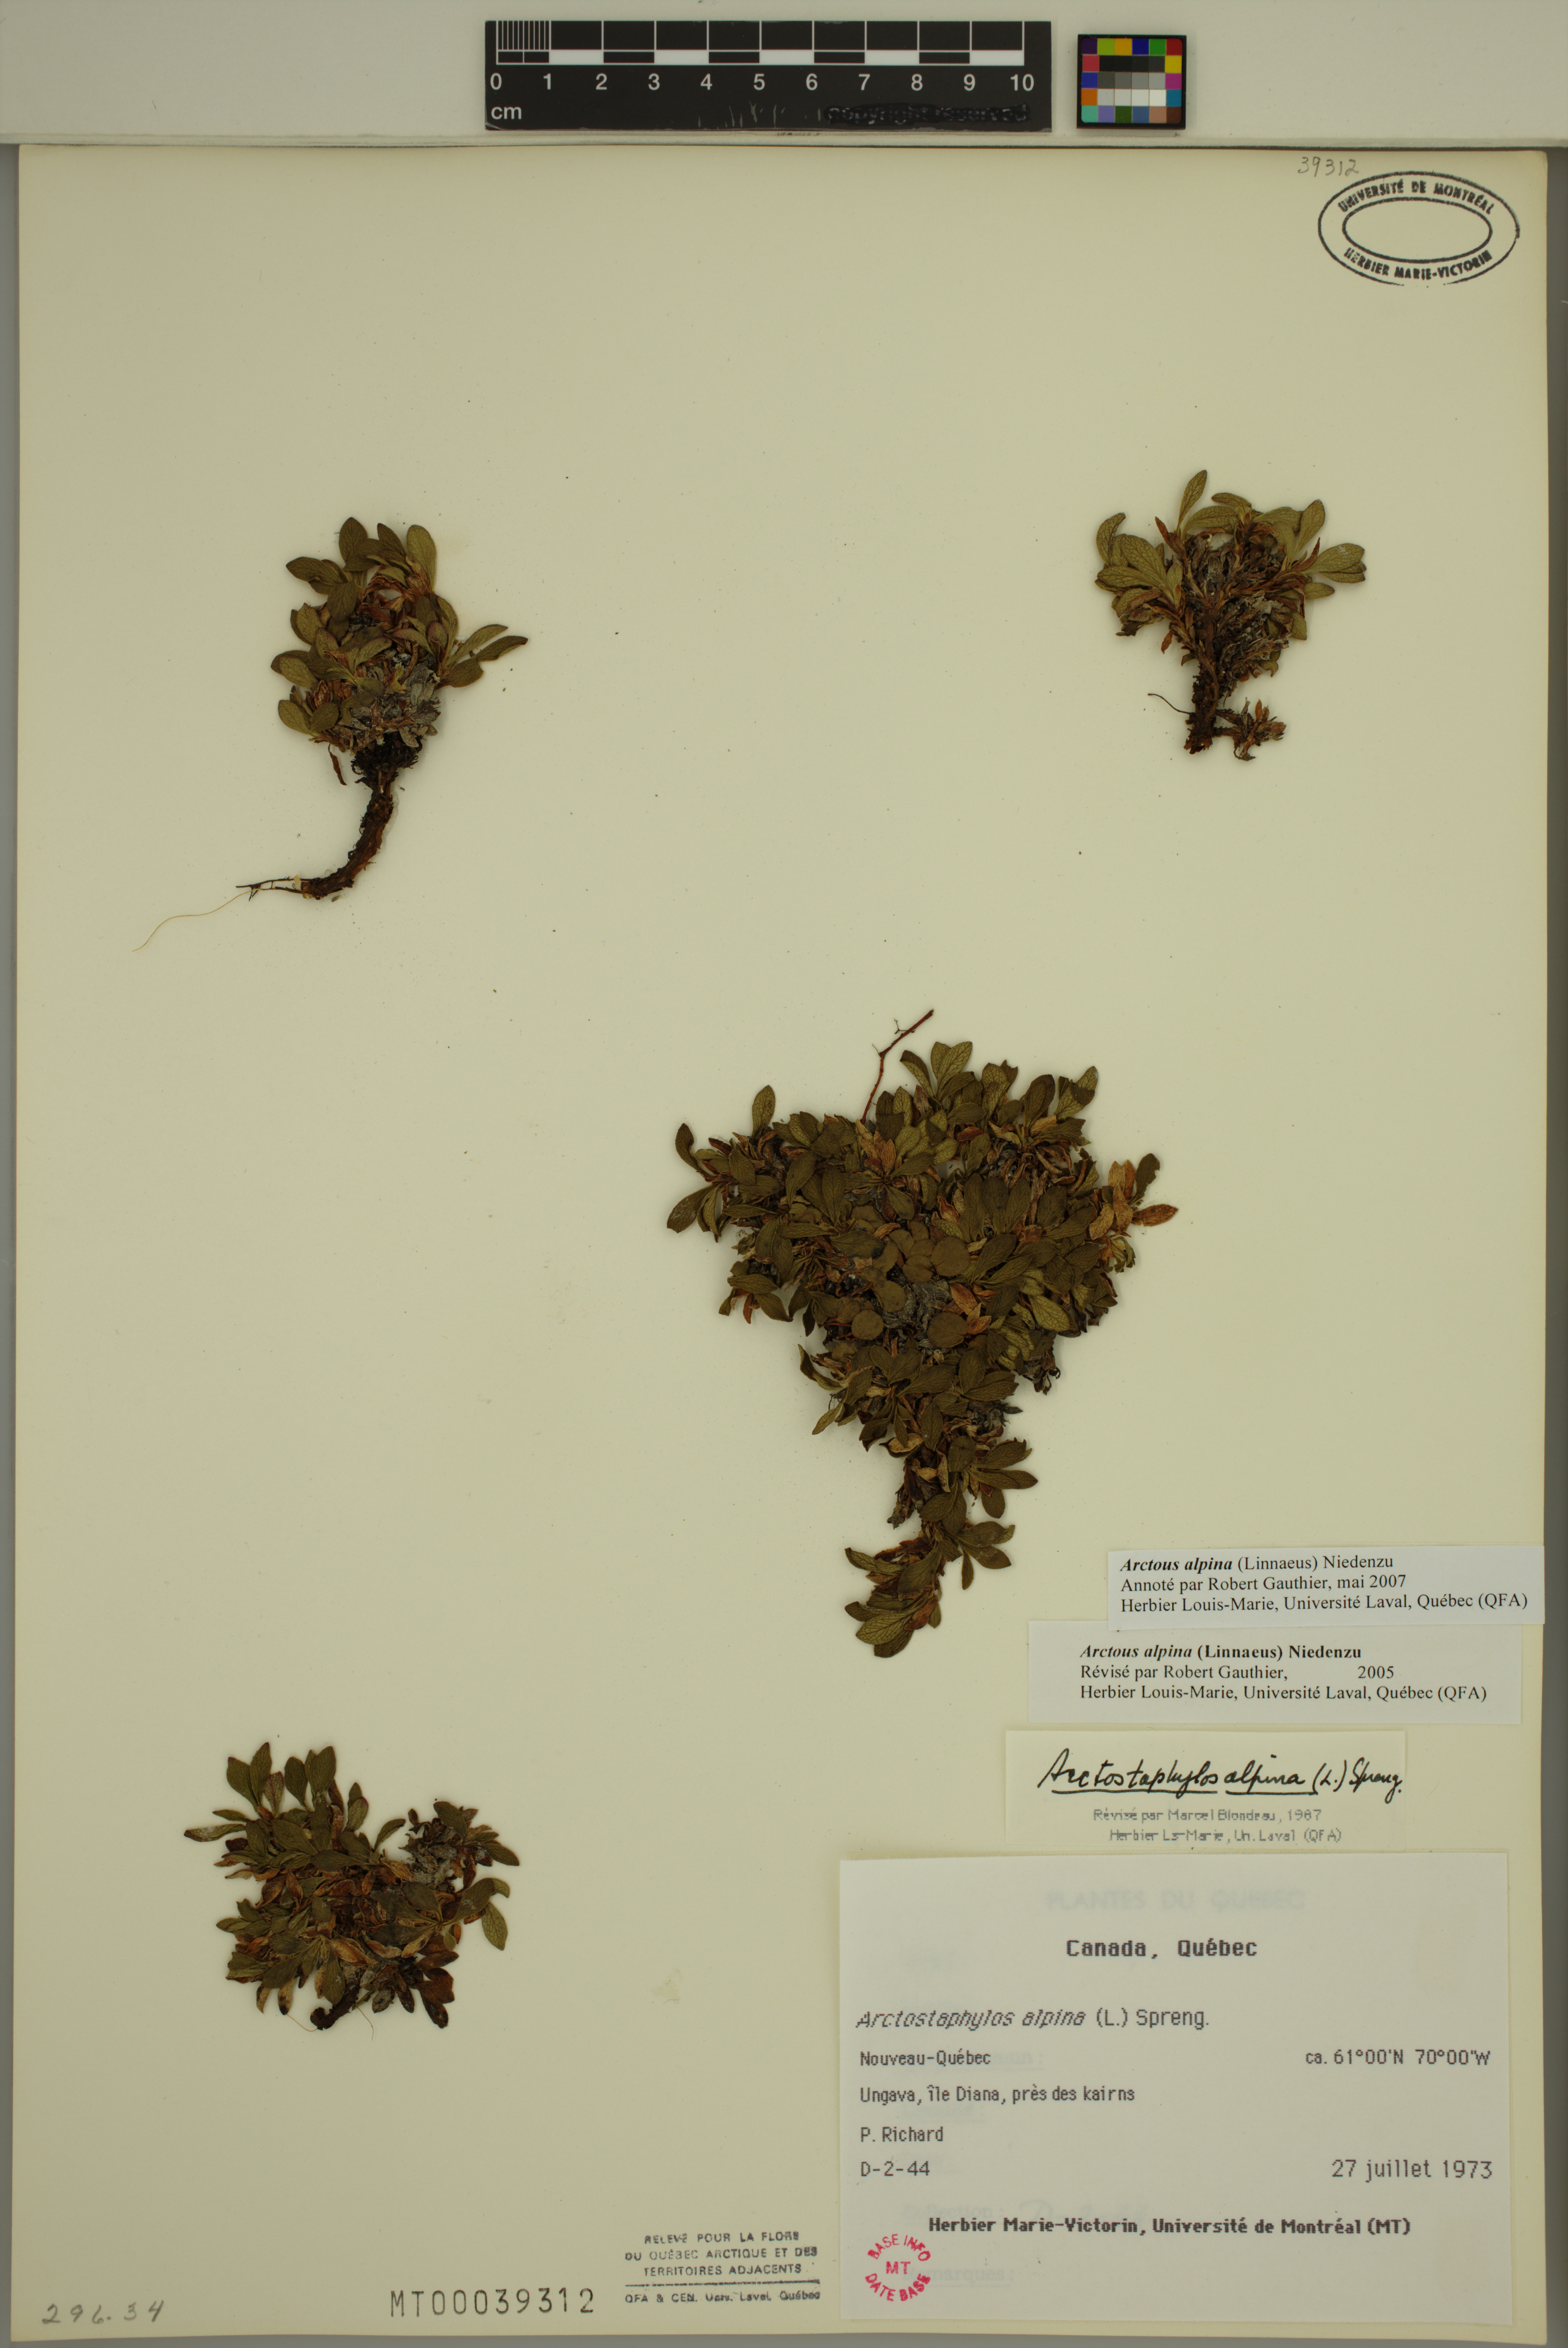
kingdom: Plantae
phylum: Tracheophyta
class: Magnoliopsida
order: Ericales
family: Ericaceae
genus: Arctostaphylos
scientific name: Arctostaphylos alpinus
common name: Alpine bearberry
